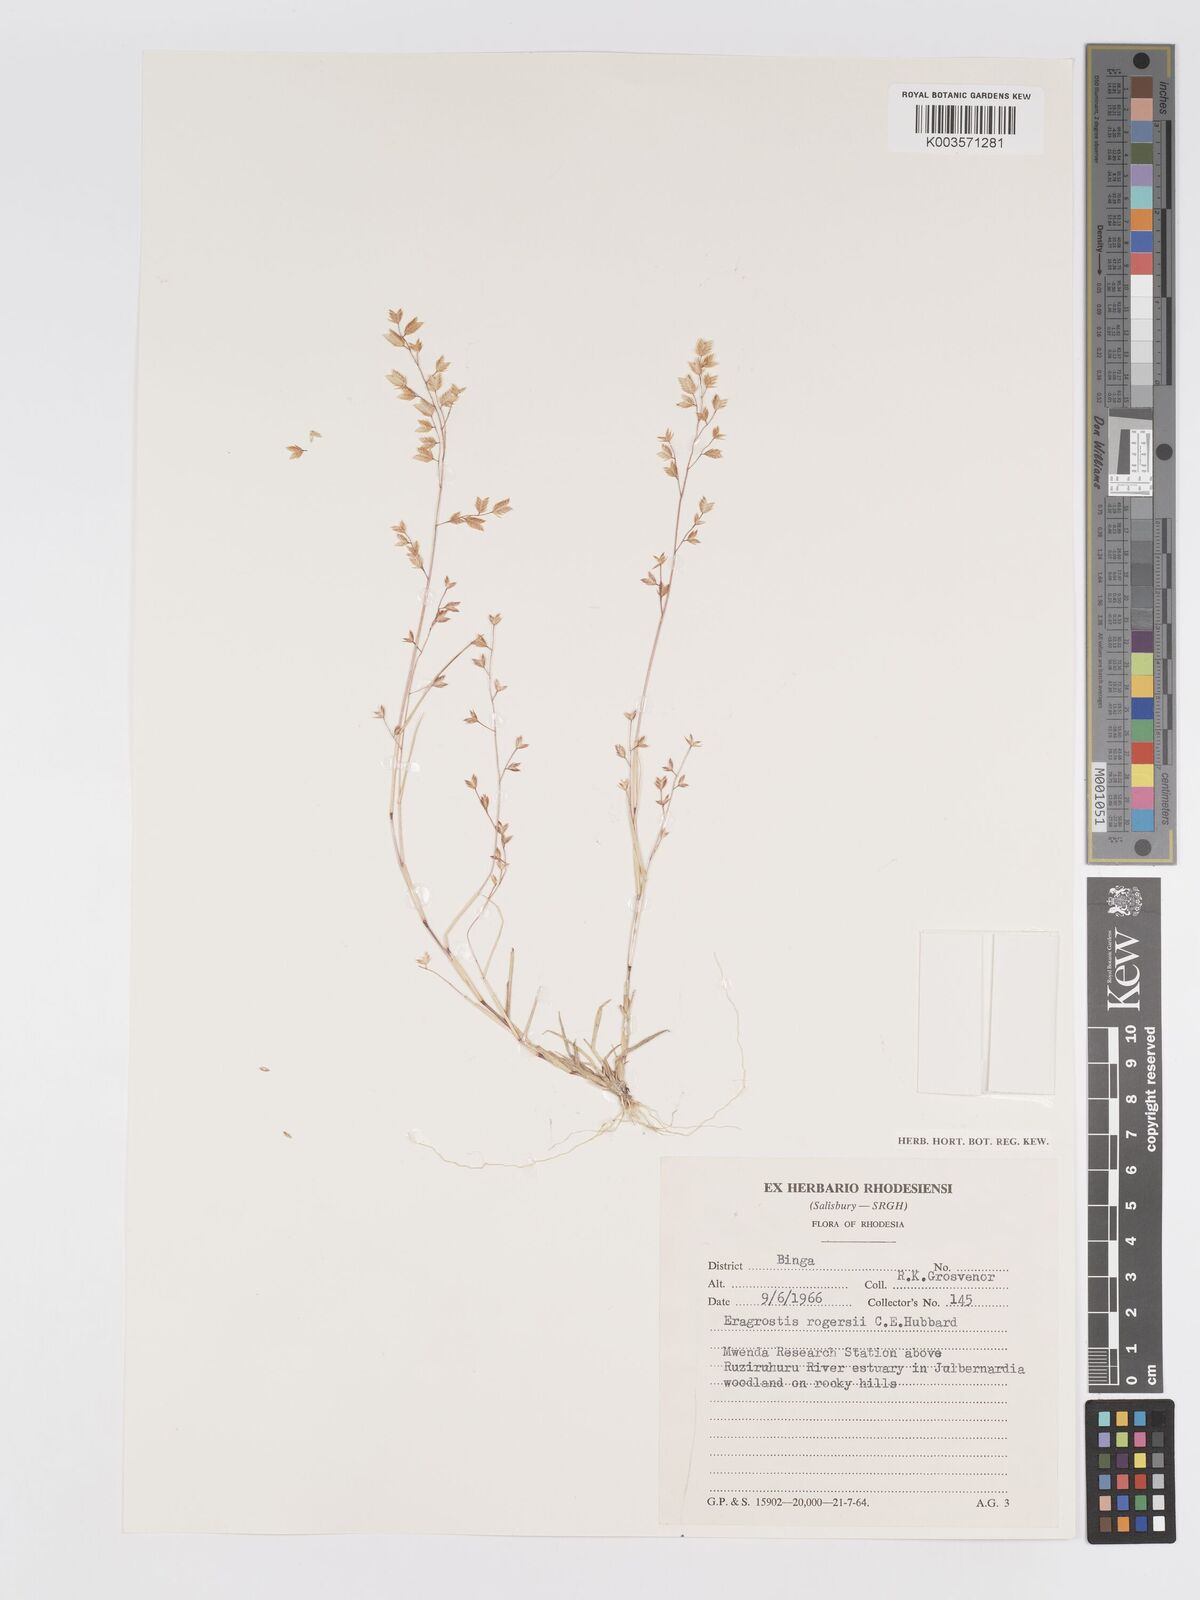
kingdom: Plantae
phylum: Tracheophyta
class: Liliopsida
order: Poales
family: Poaceae
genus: Eragrostis
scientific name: Eragrostis rogersii
